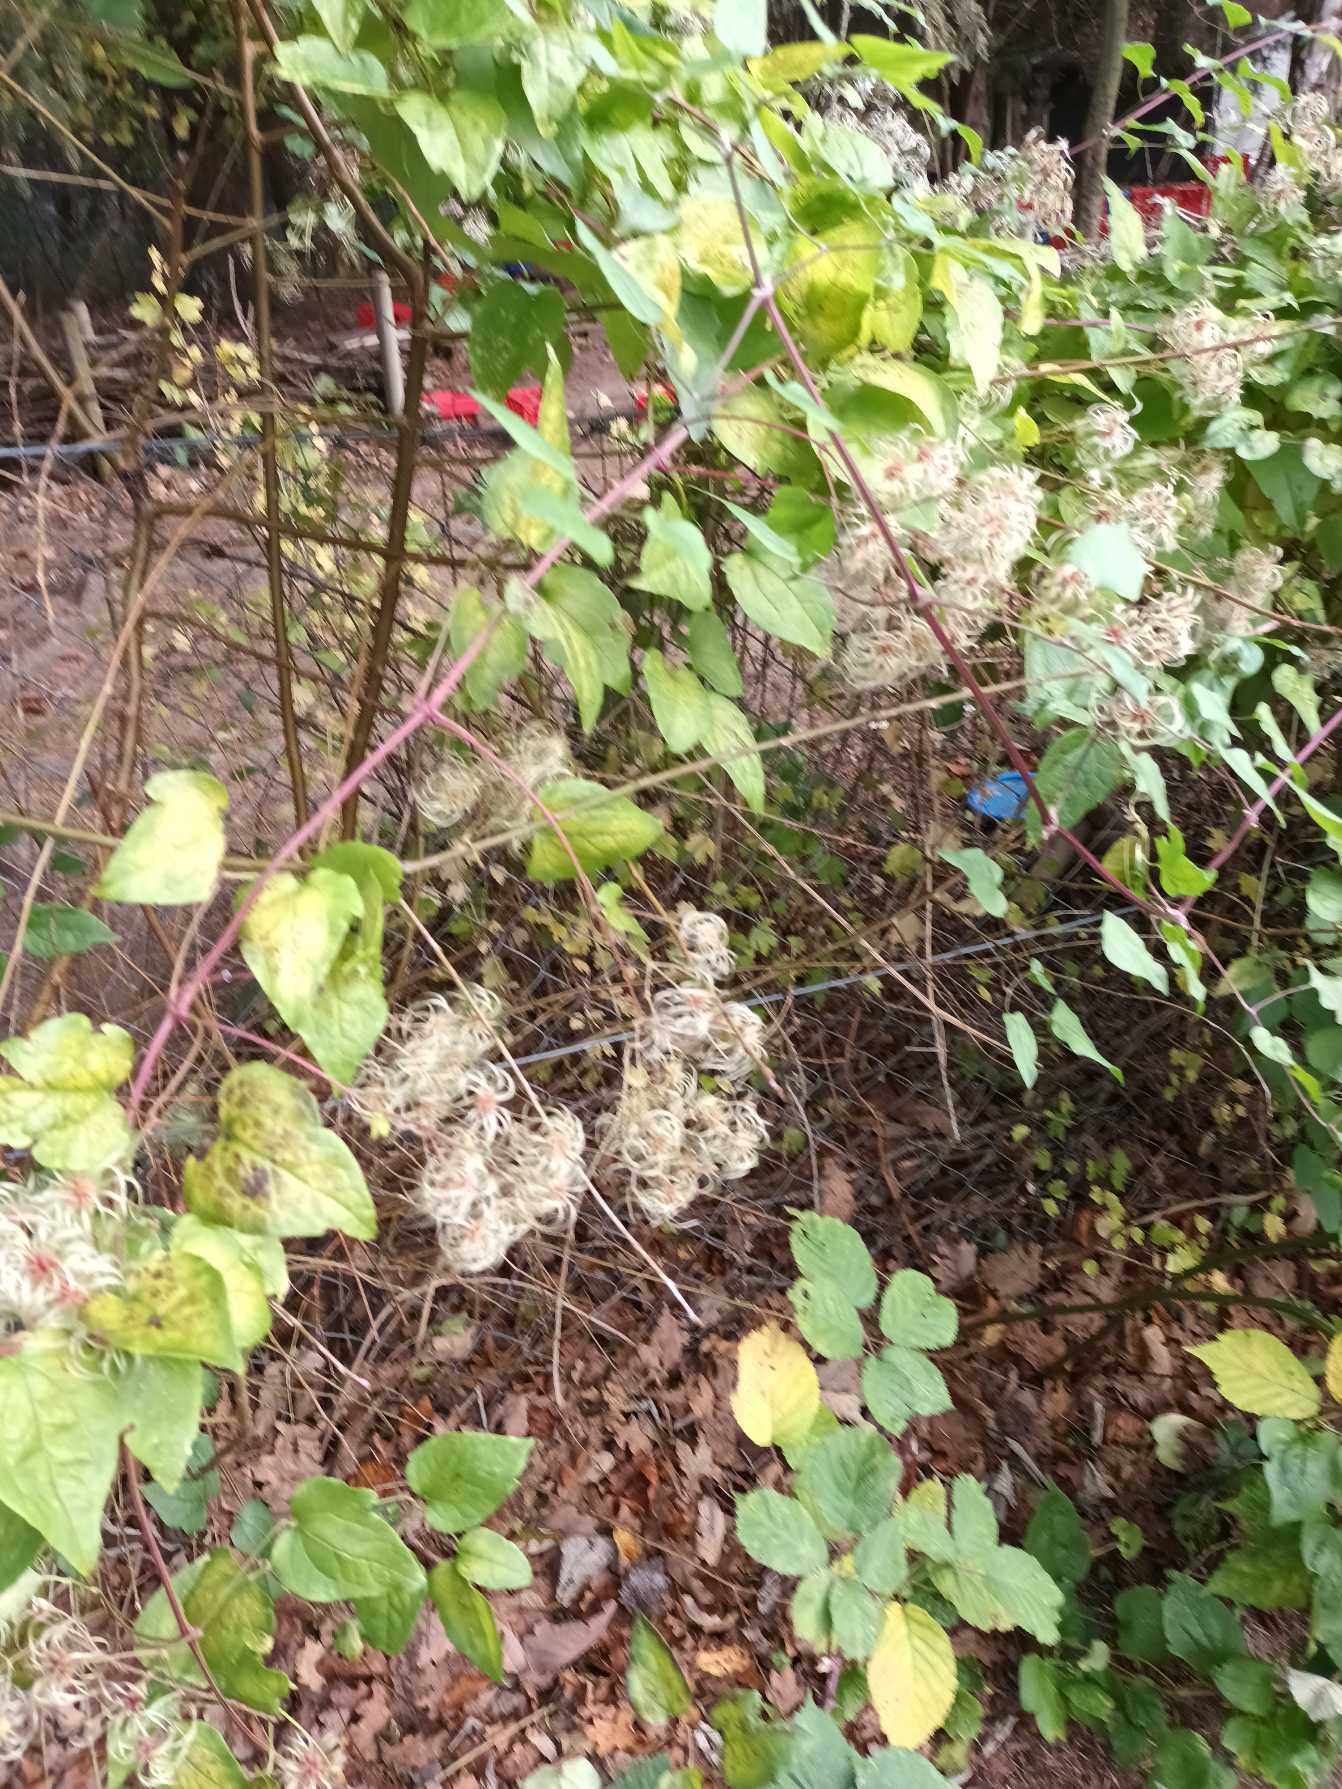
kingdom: Plantae
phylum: Tracheophyta
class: Magnoliopsida
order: Ranunculales
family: Ranunculaceae
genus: Clematis
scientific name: Clematis vitalba
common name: Skovranke
